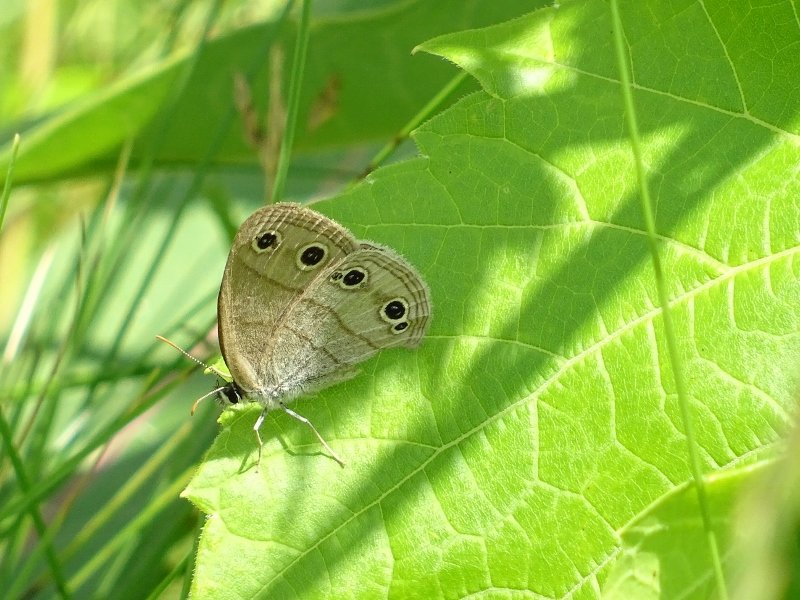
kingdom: Animalia
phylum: Arthropoda
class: Insecta
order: Lepidoptera
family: Nymphalidae
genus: Euptychia
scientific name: Euptychia cymela
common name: Little Wood Satyr
